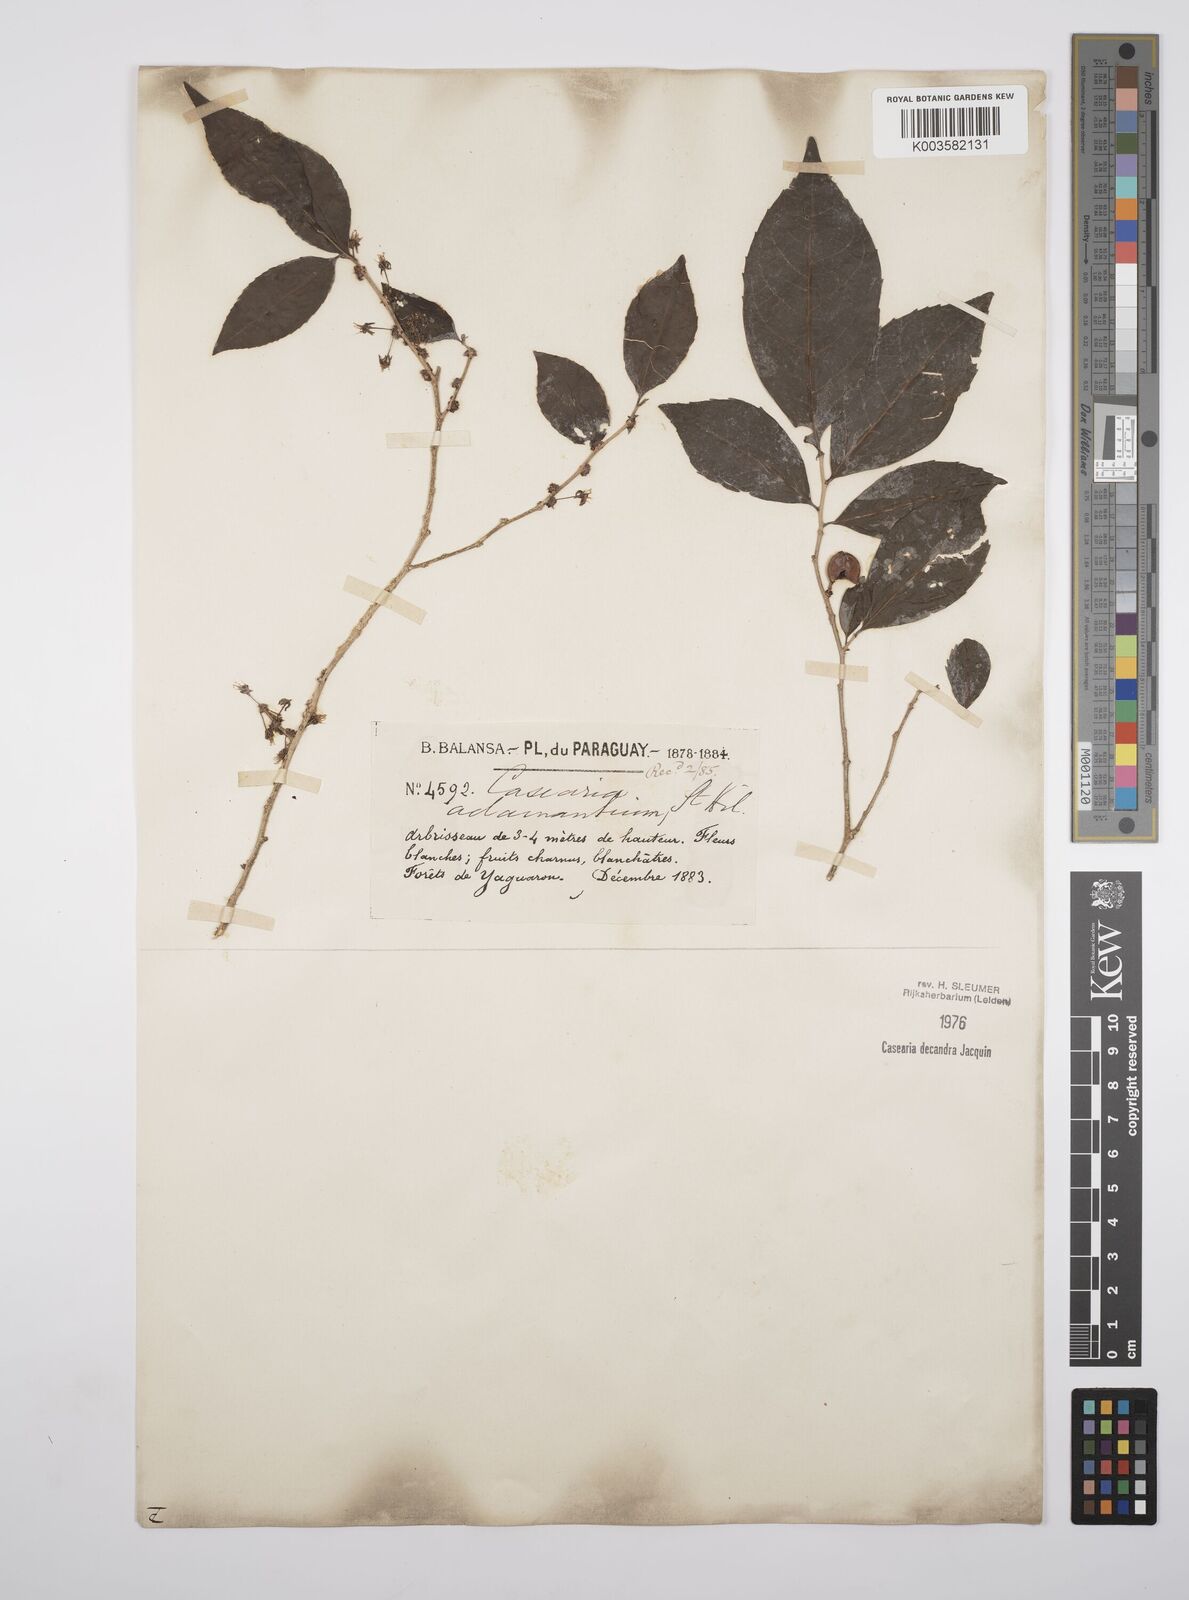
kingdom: Plantae
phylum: Tracheophyta
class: Magnoliopsida
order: Malpighiales
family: Salicaceae
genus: Casearia
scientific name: Casearia
